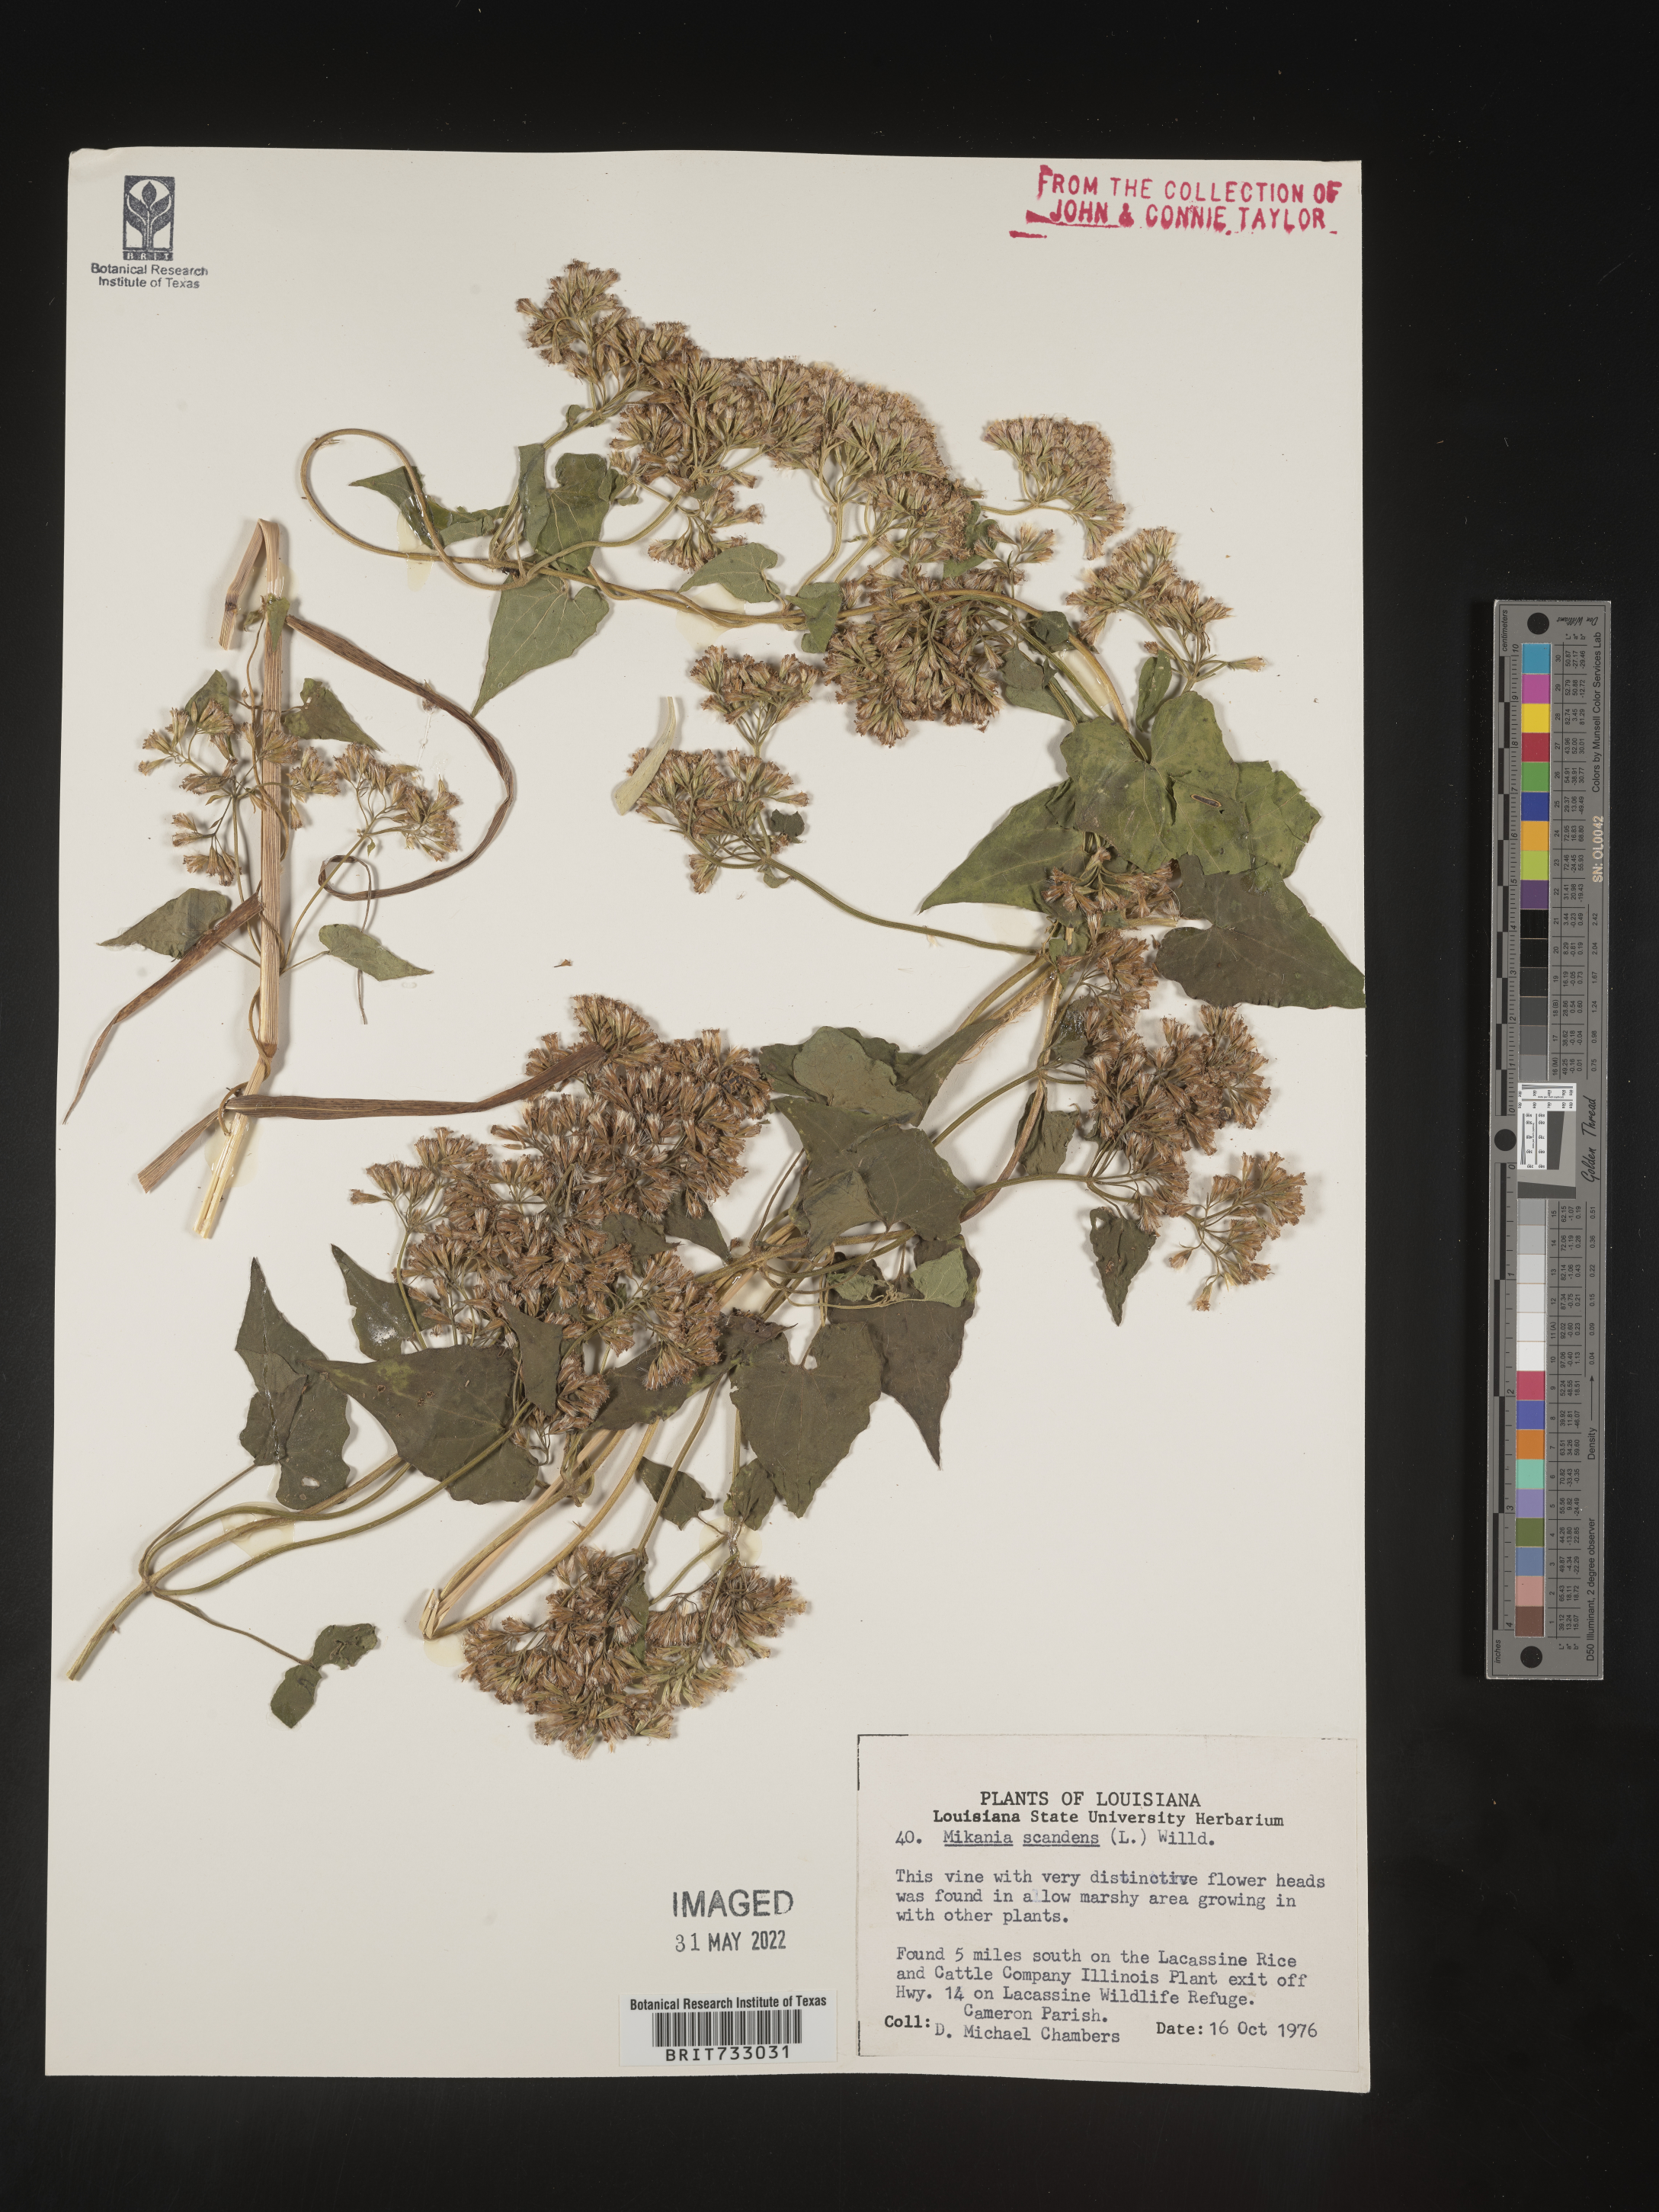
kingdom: Plantae
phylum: Tracheophyta
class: Magnoliopsida
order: Asterales
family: Asteraceae
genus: Mikania
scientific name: Mikania scandens
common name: Climbing hempvine
